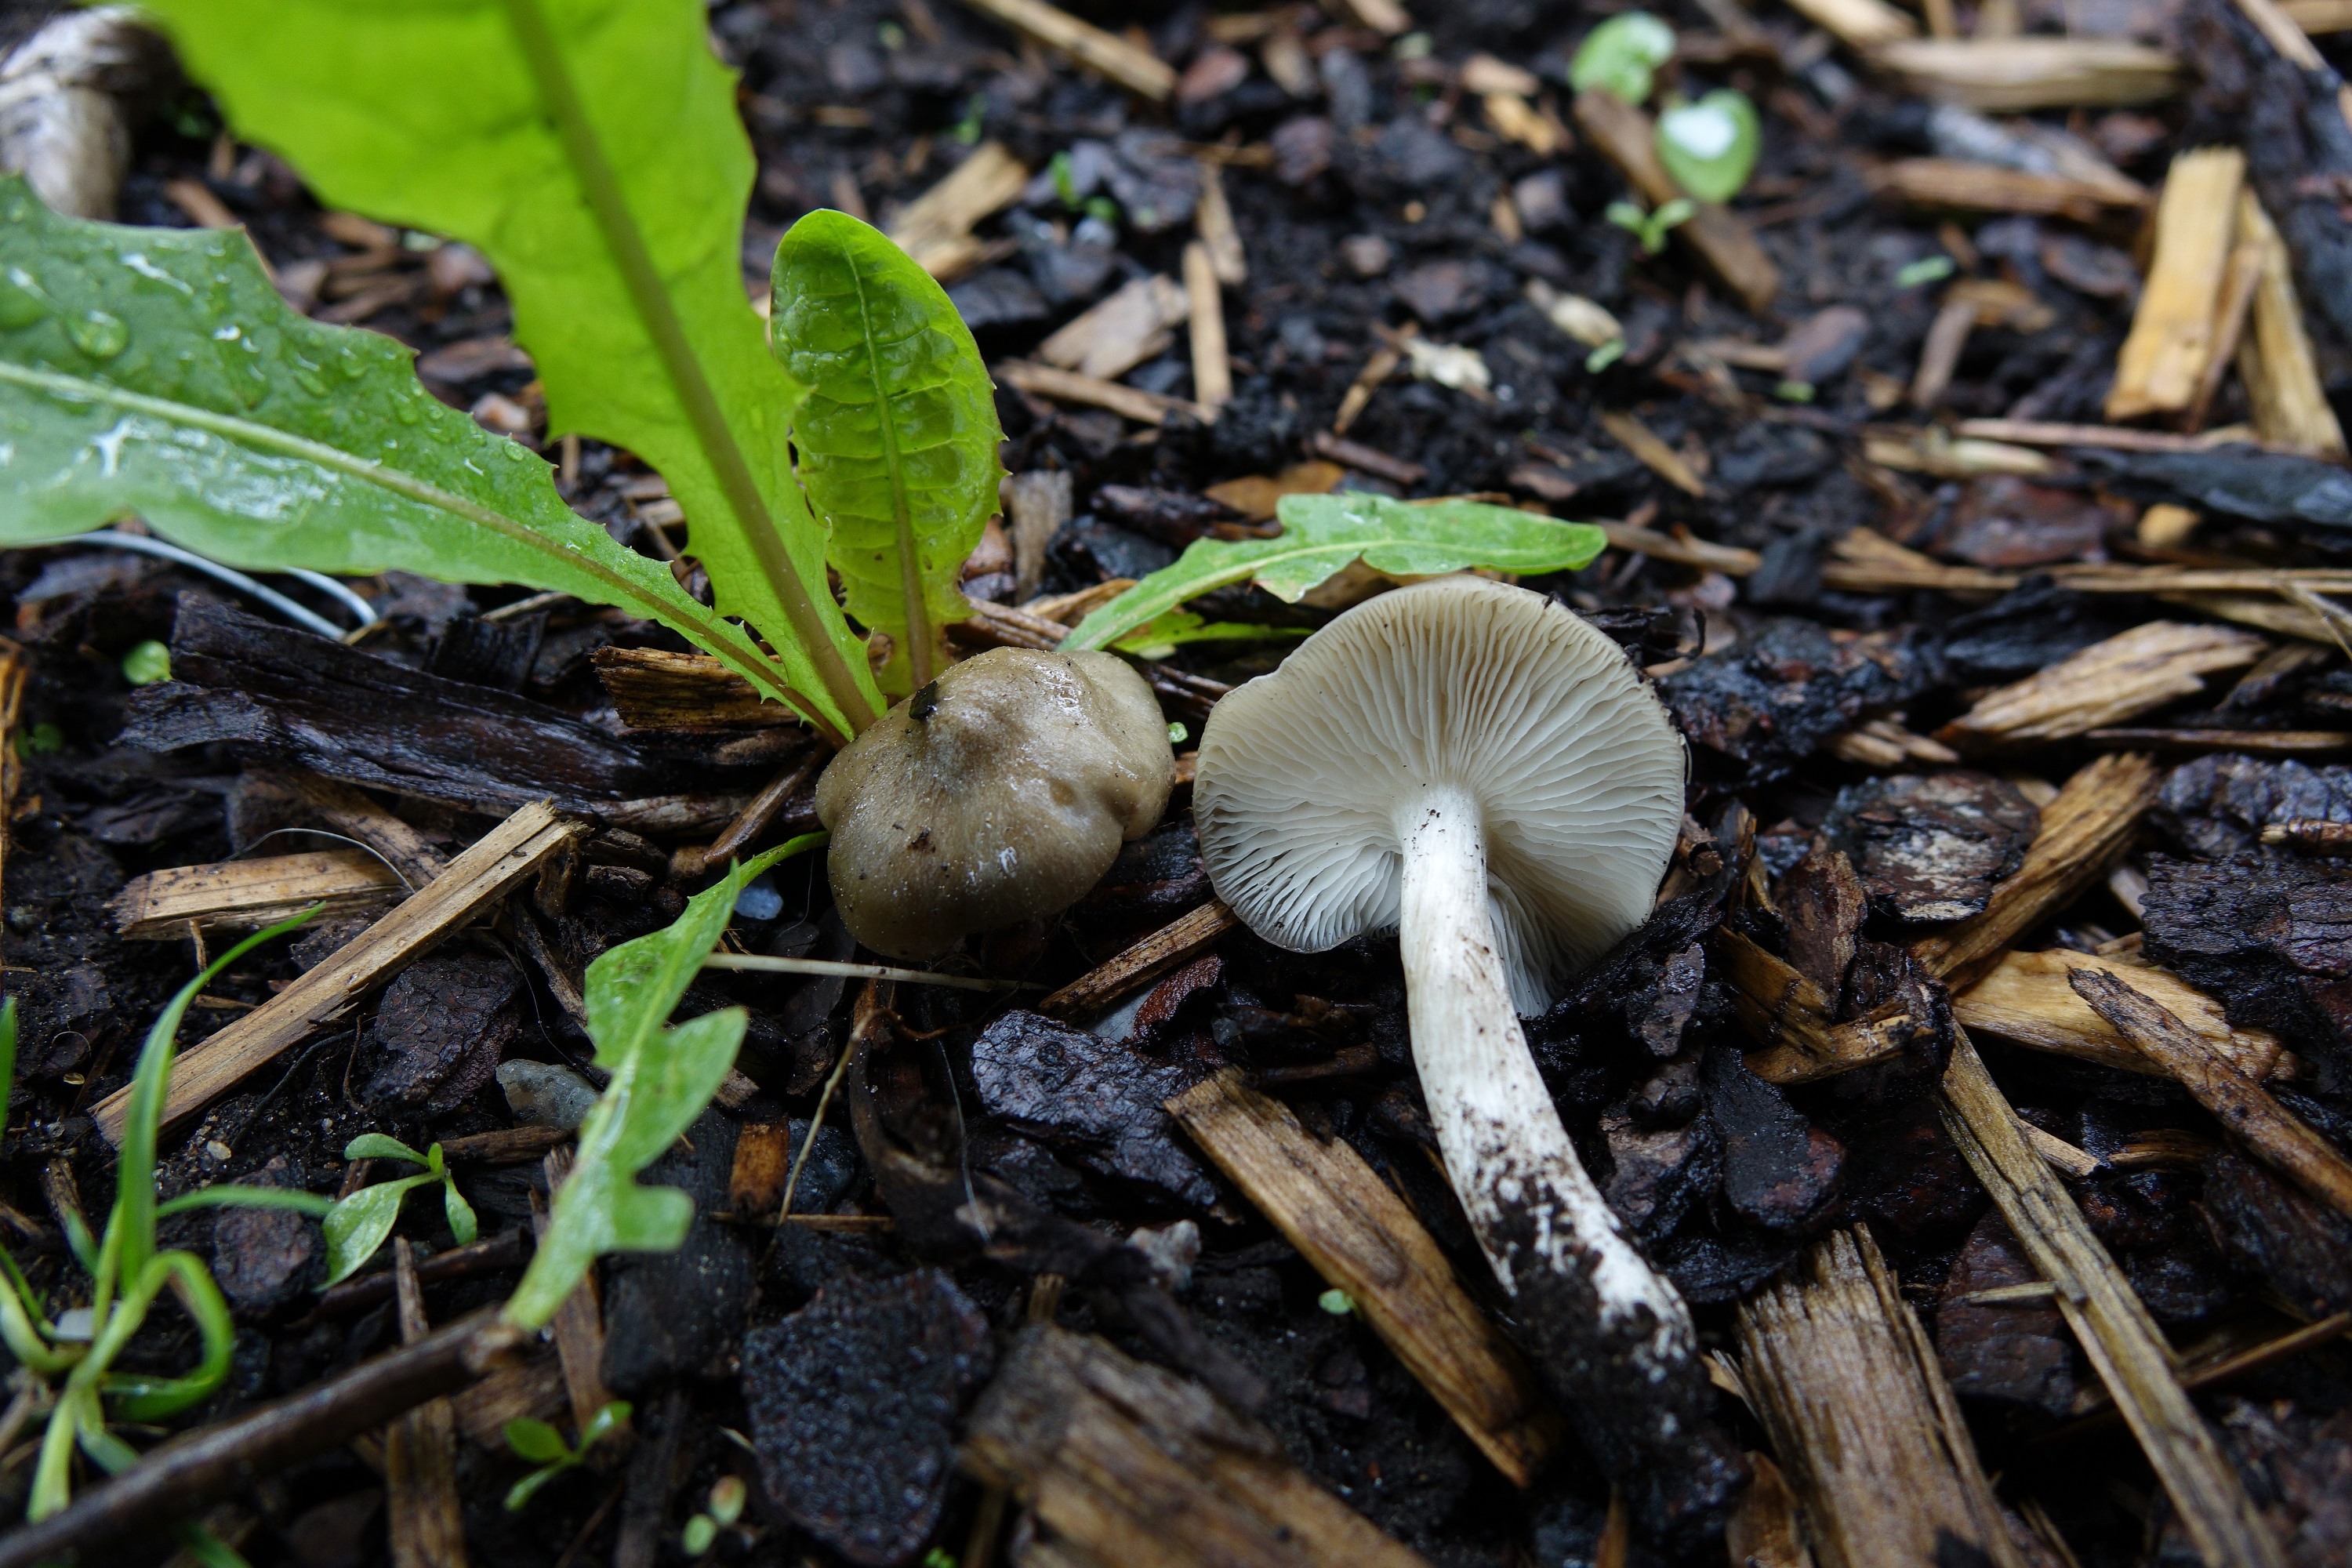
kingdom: Fungi
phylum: Basidiomycota
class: Agaricomycetes
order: Agaricales
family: Entolomataceae
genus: Entoloma
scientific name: Entoloma clypeatum
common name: Shield pinkgill
